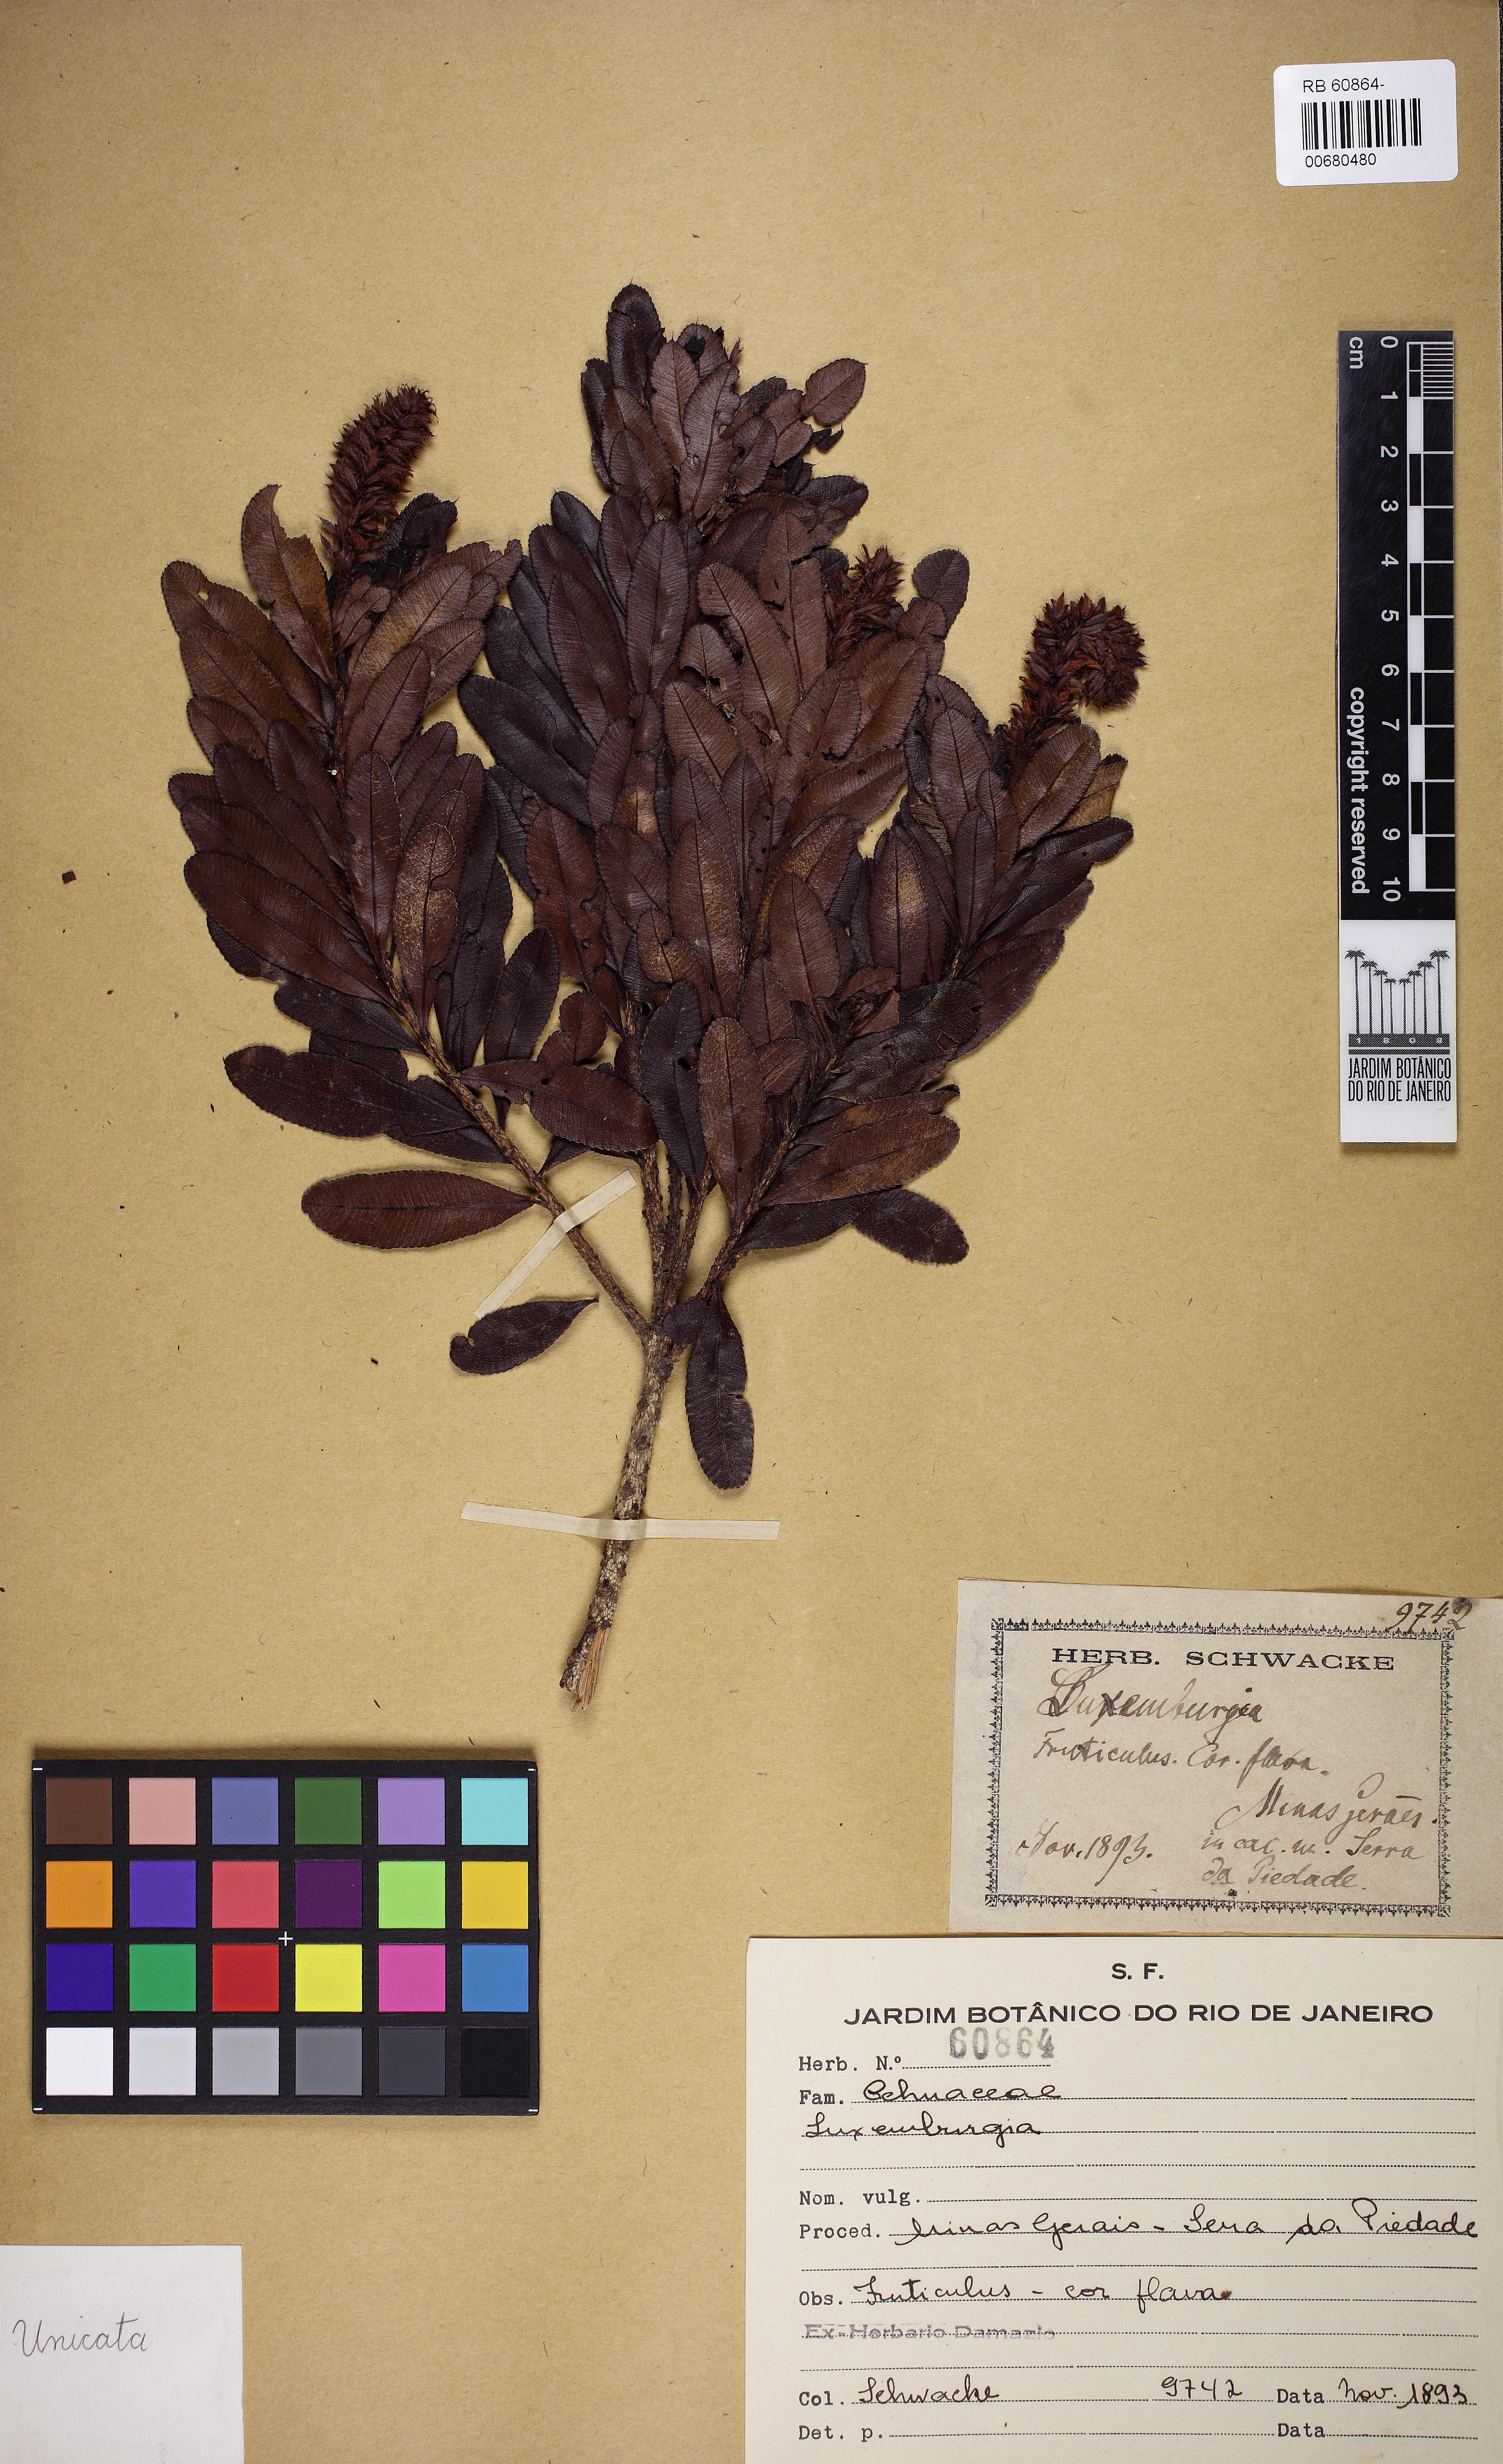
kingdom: Plantae
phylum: Tracheophyta
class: Magnoliopsida
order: Malpighiales
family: Ochnaceae
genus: Luxemburgia
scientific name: Luxemburgia
